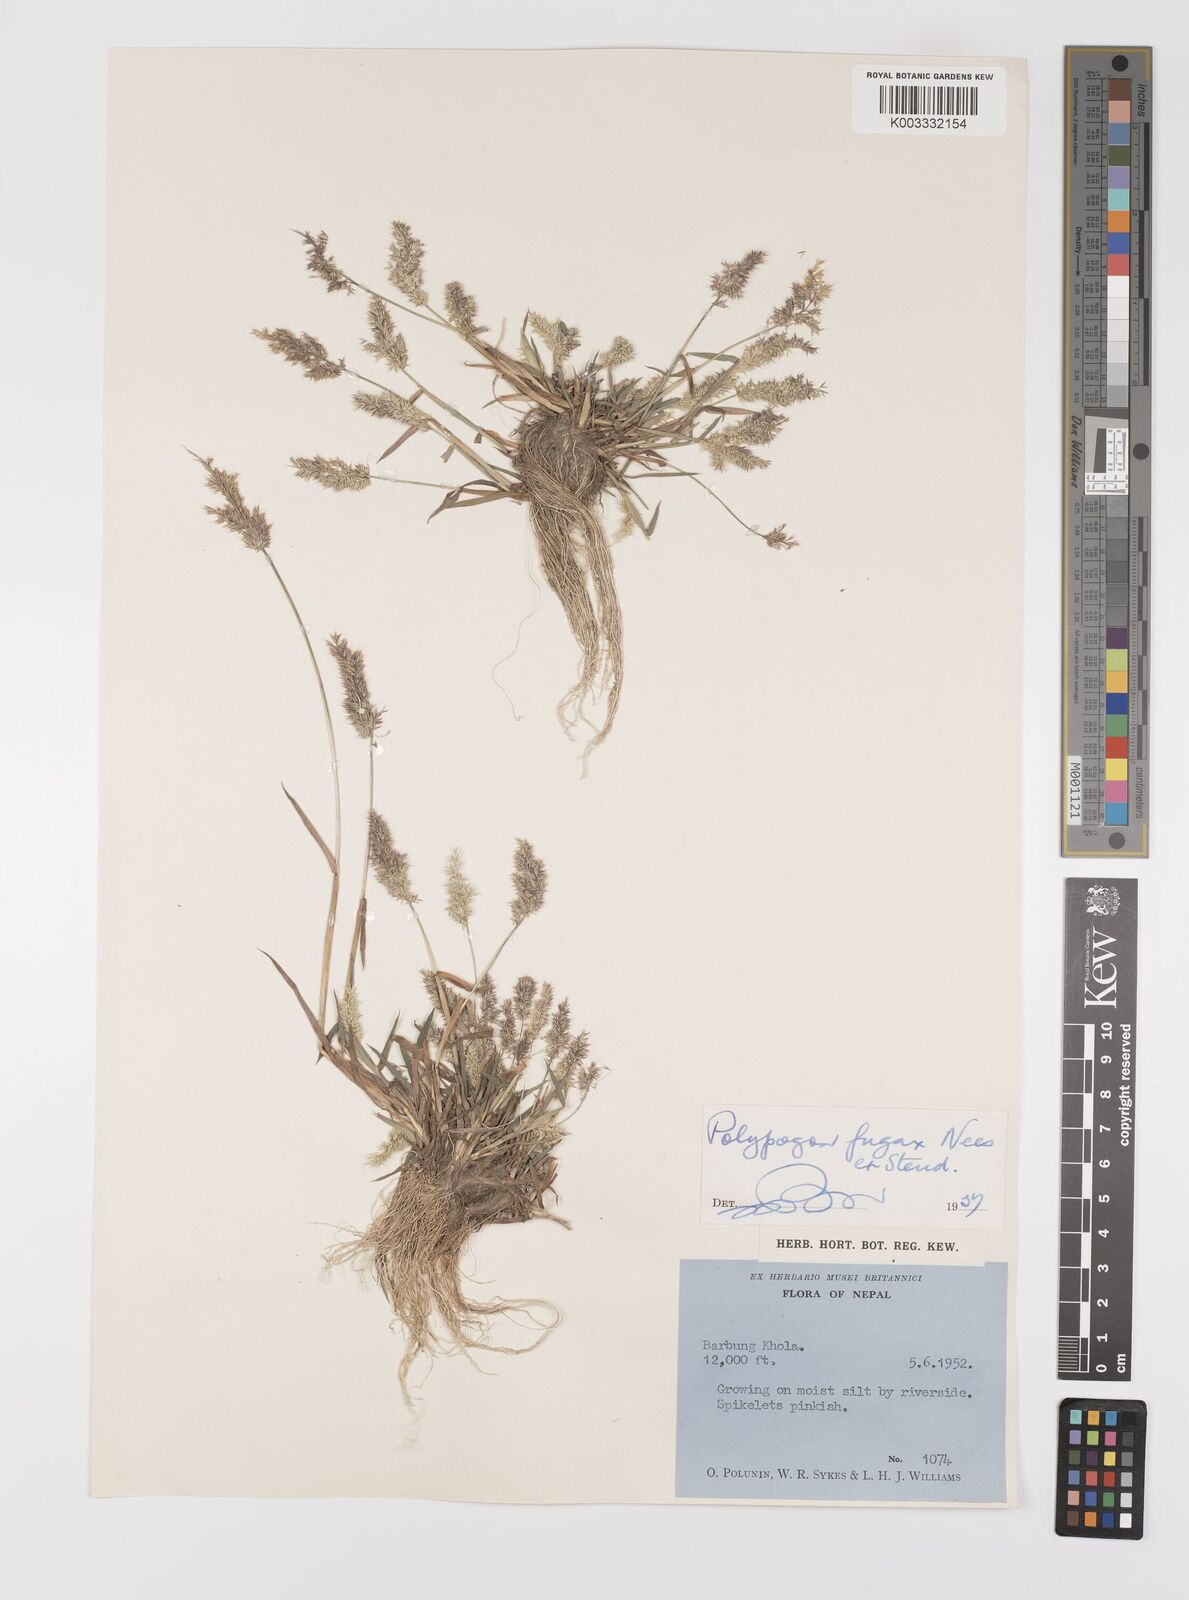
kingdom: Plantae
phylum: Tracheophyta
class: Liliopsida
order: Poales
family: Poaceae
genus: Polypogon
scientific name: Polypogon fugax
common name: Asia minor bluegrass
